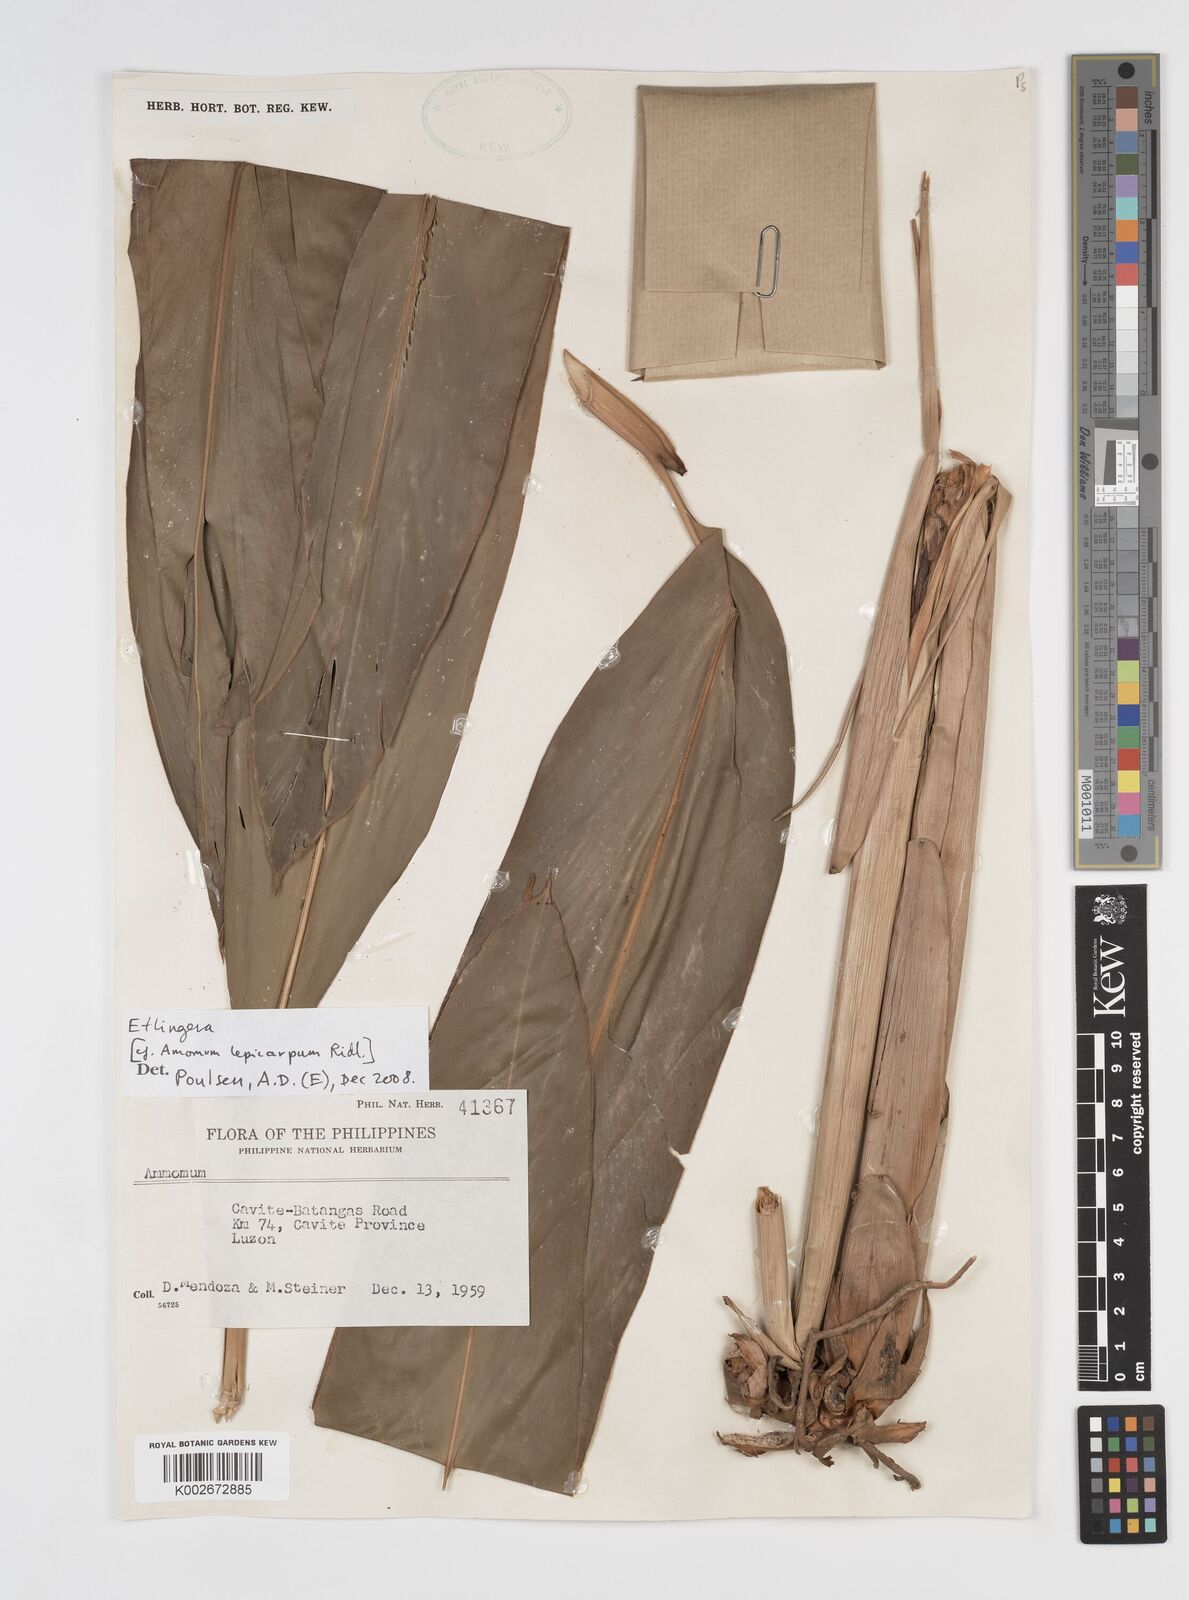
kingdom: Plantae
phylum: Tracheophyta
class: Liliopsida
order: Zingiberales
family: Zingiberaceae
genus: Etlingera
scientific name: Etlingera
